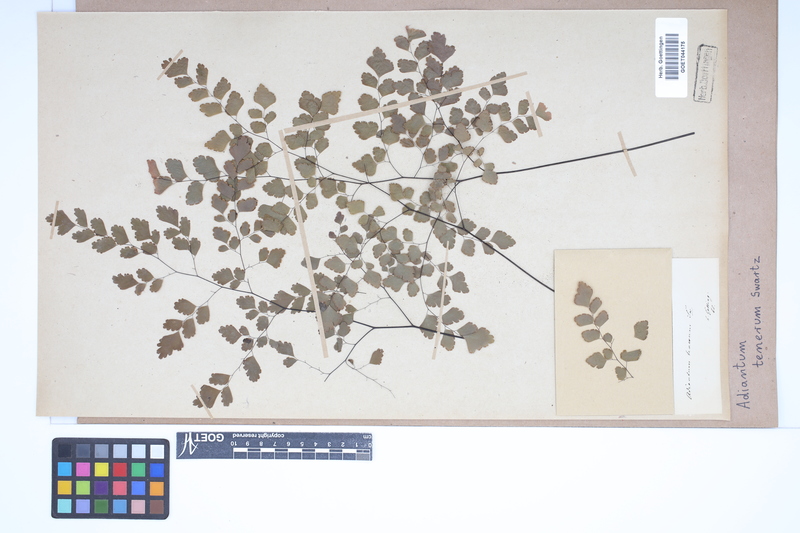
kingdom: Plantae
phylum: Tracheophyta
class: Polypodiopsida
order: Polypodiales
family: Pteridaceae
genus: Adiantum
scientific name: Adiantum tenerum
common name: Fan maidenhair
